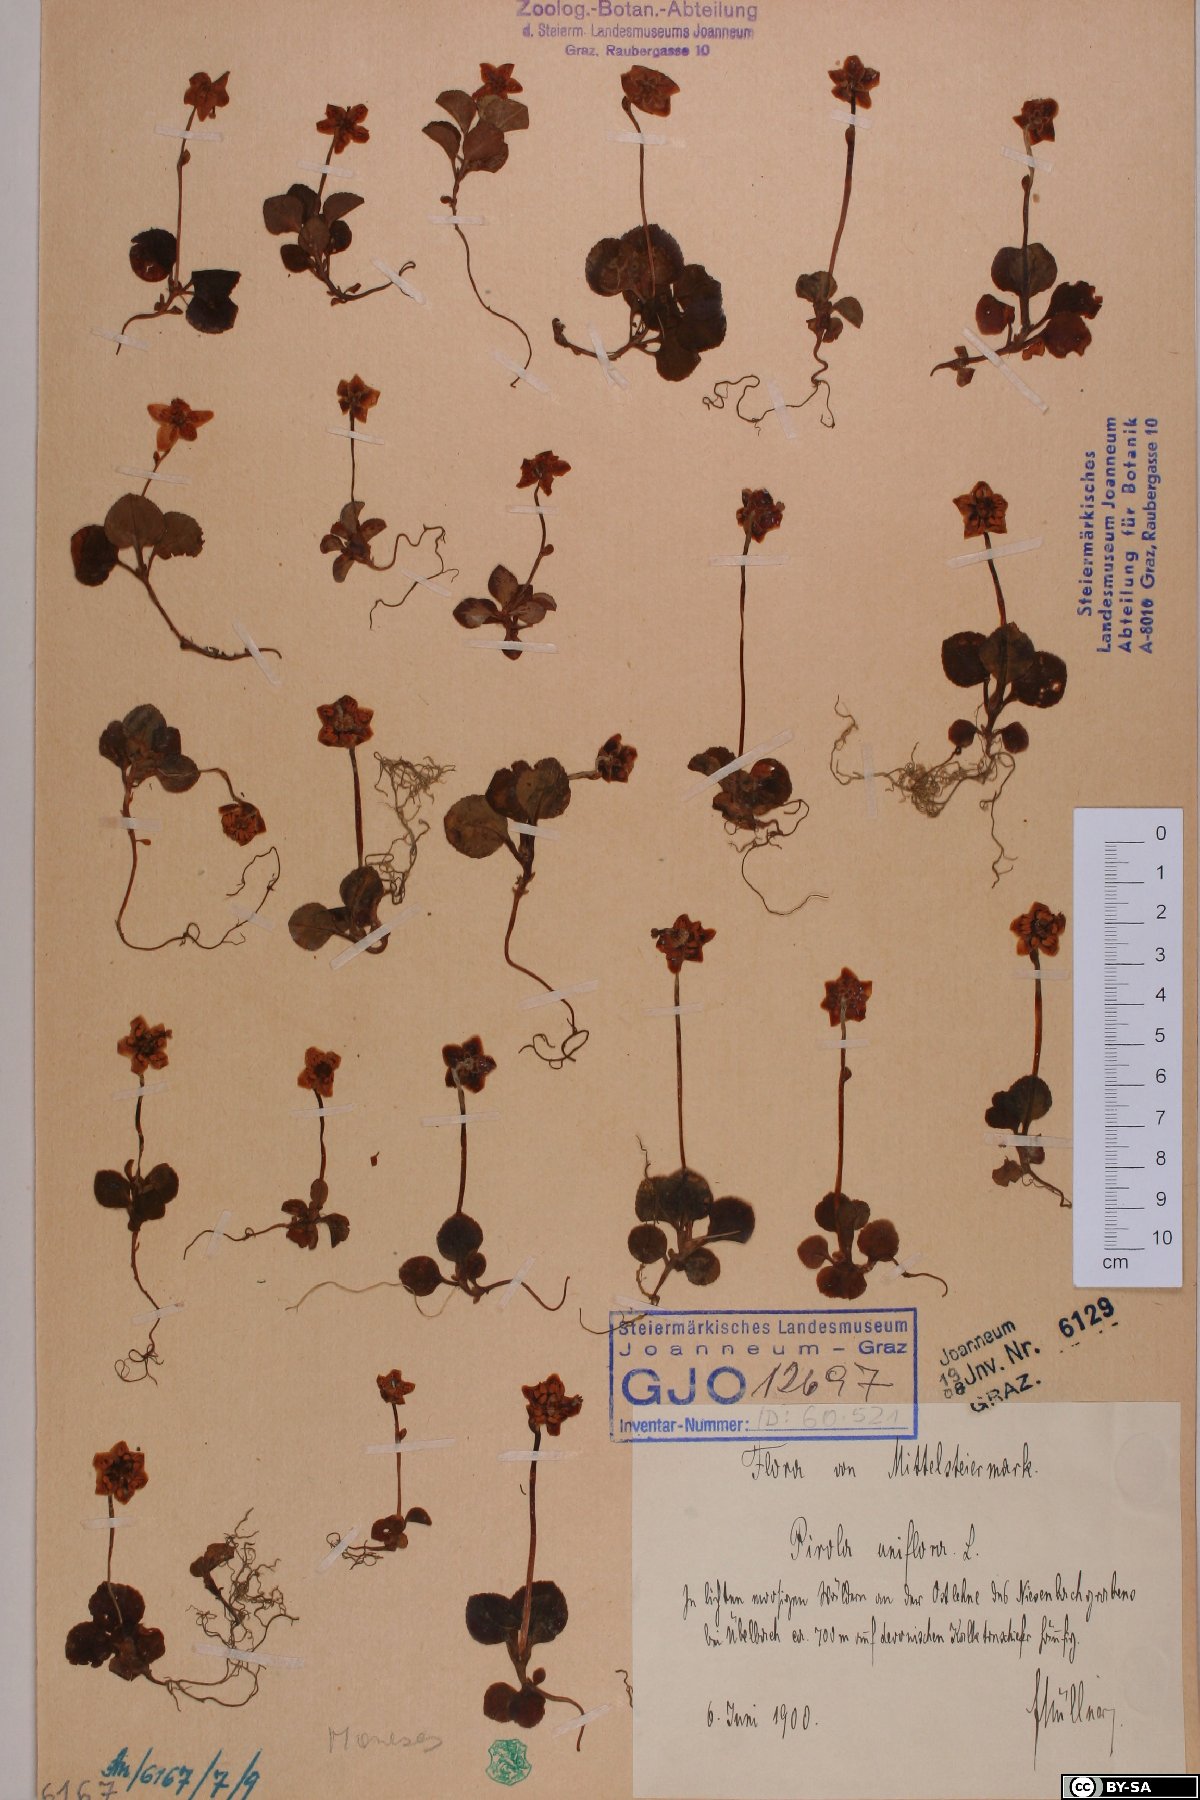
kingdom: Plantae
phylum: Tracheophyta
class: Magnoliopsida
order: Ericales
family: Ericaceae
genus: Moneses
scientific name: Moneses uniflora
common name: One-flowered wintergreen
